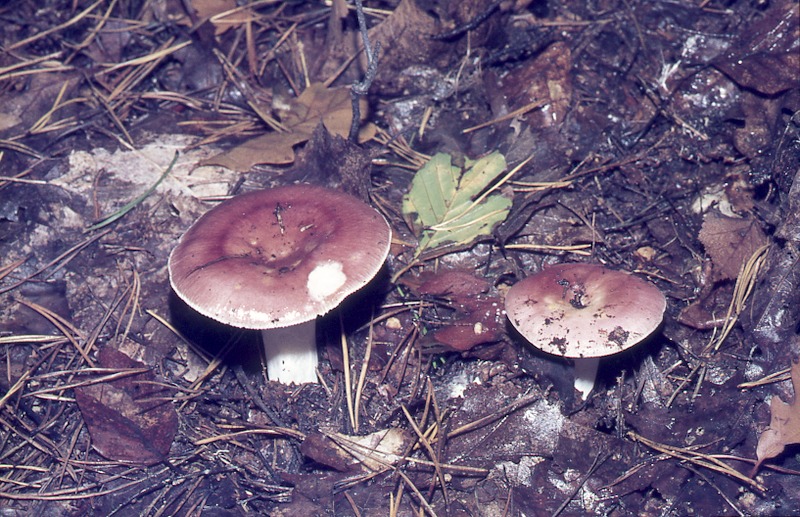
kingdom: Fungi
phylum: Basidiomycota
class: Agaricomycetes
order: Russulales
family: Russulaceae
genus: Russula
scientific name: Russula vesca
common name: Bare-toothed russula
